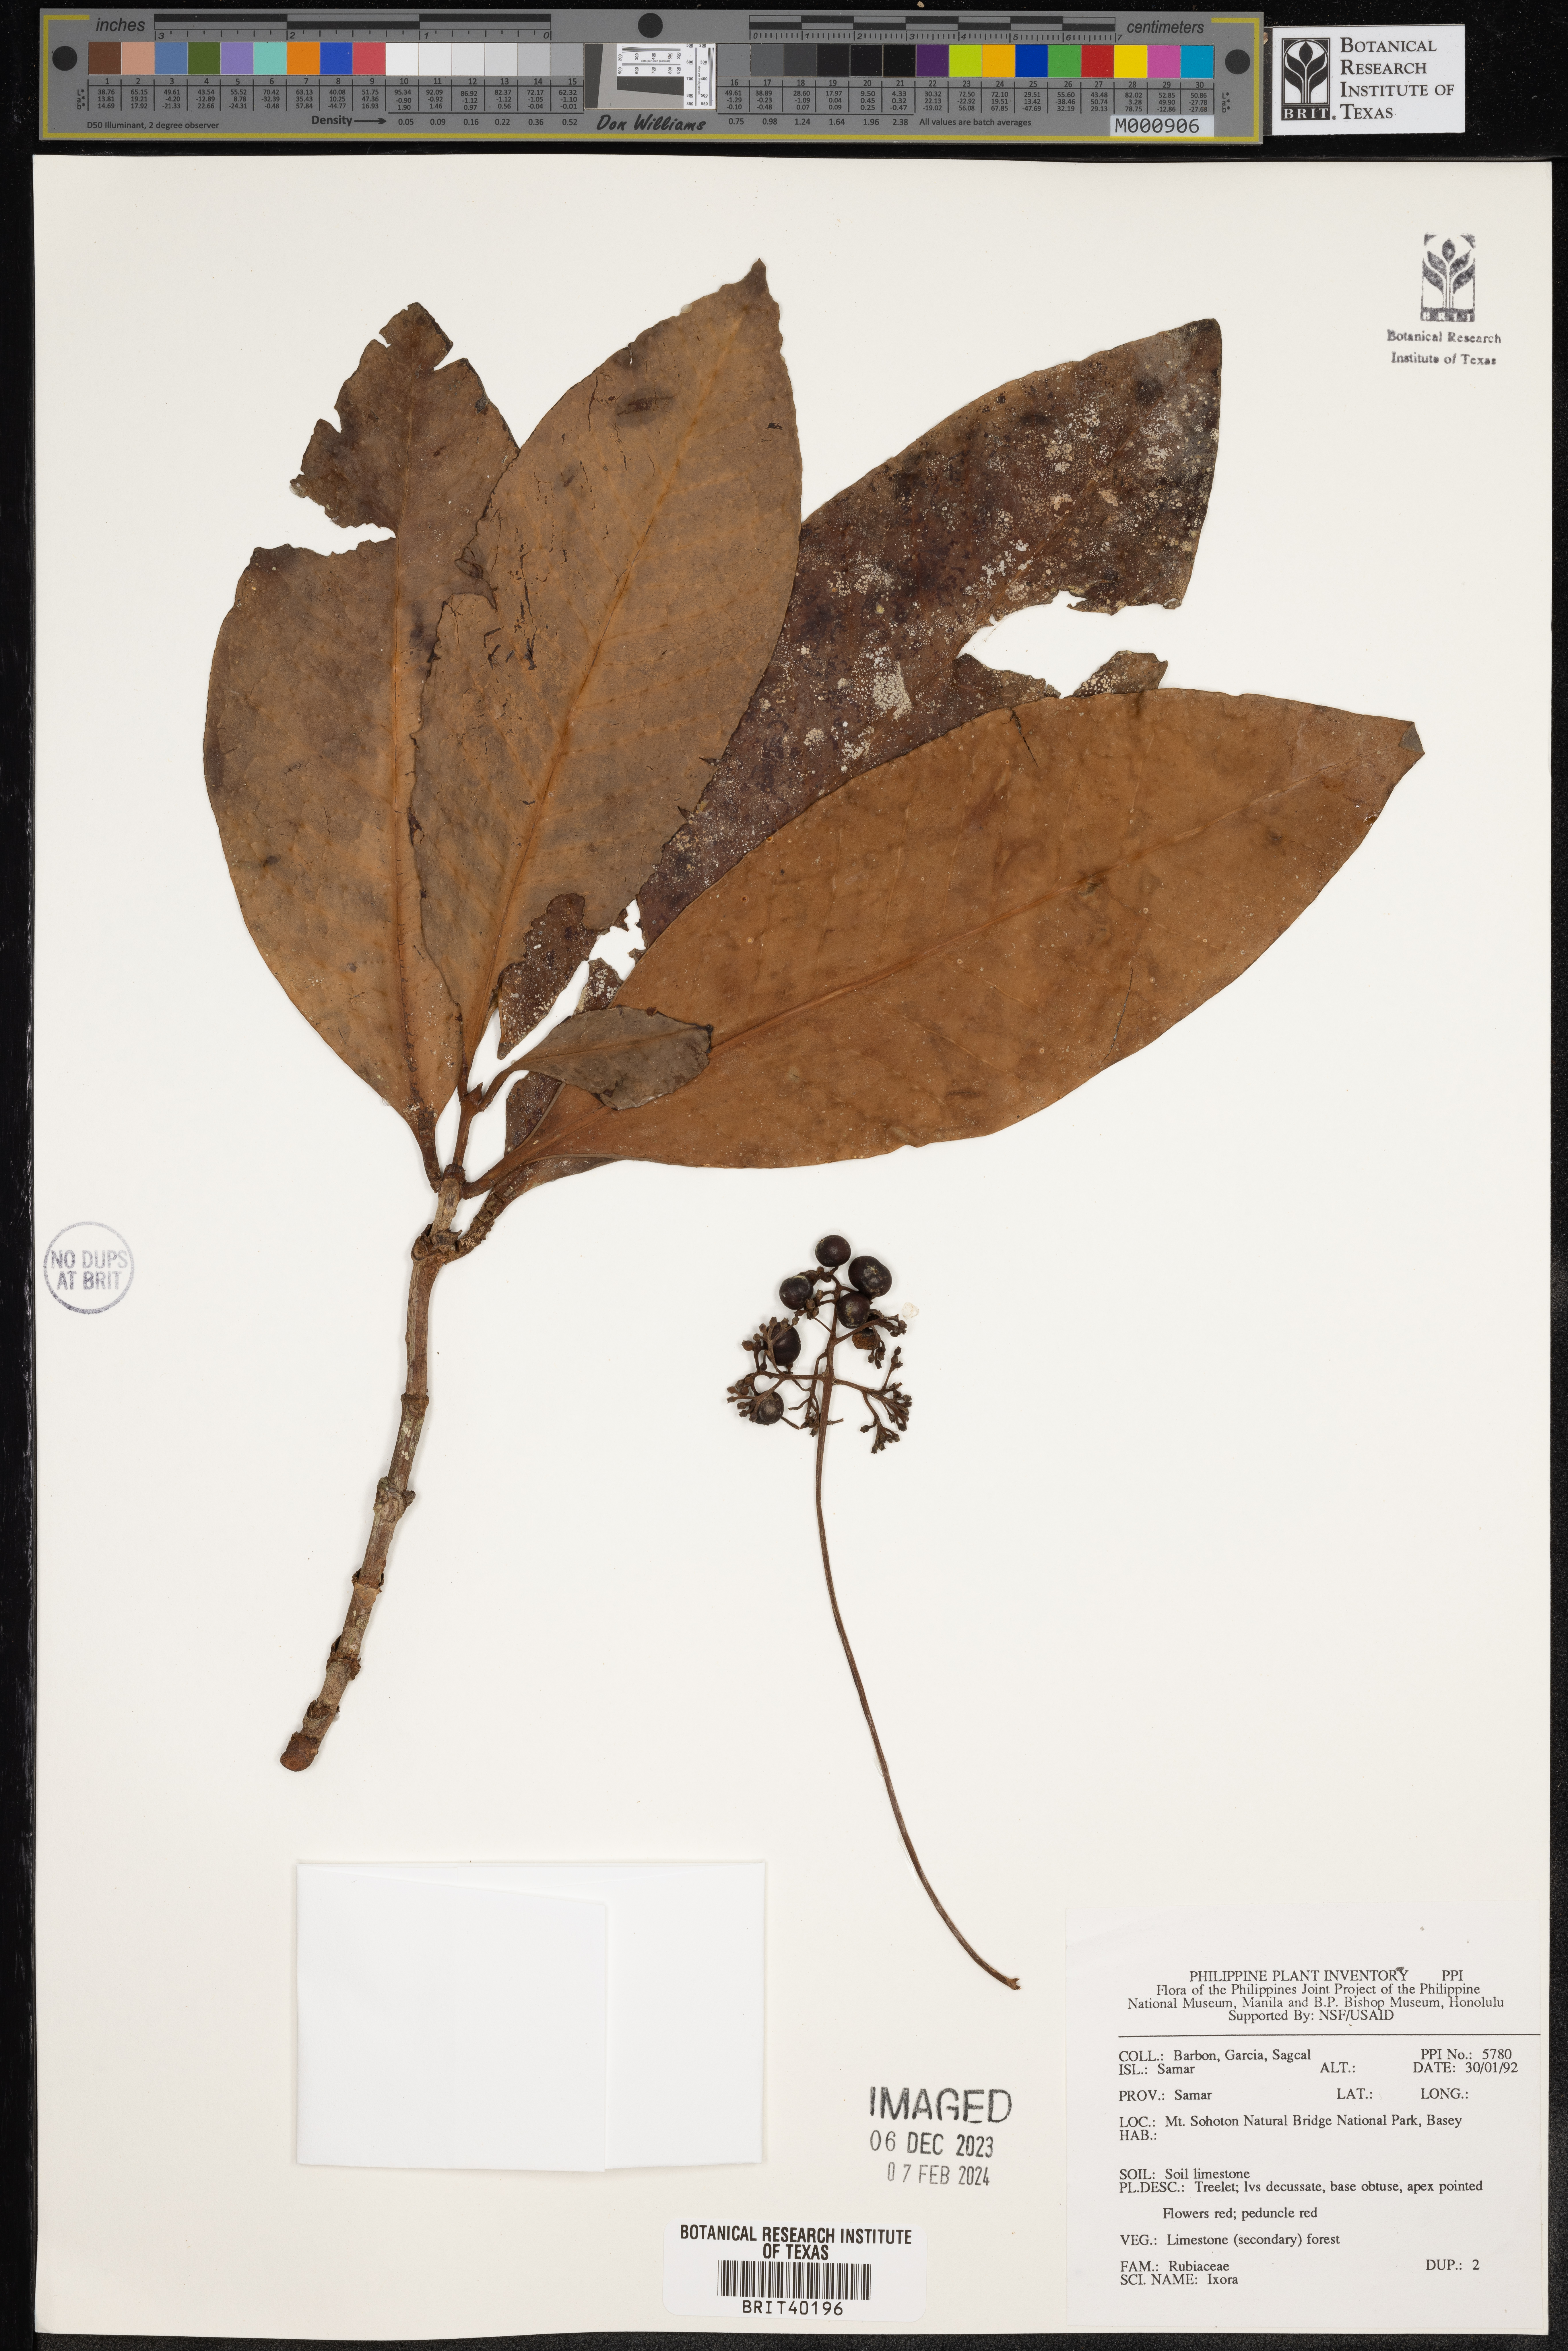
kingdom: Plantae
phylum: Tracheophyta
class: Magnoliopsida
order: Gentianales
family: Rubiaceae
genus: Ixora
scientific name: Ixora
